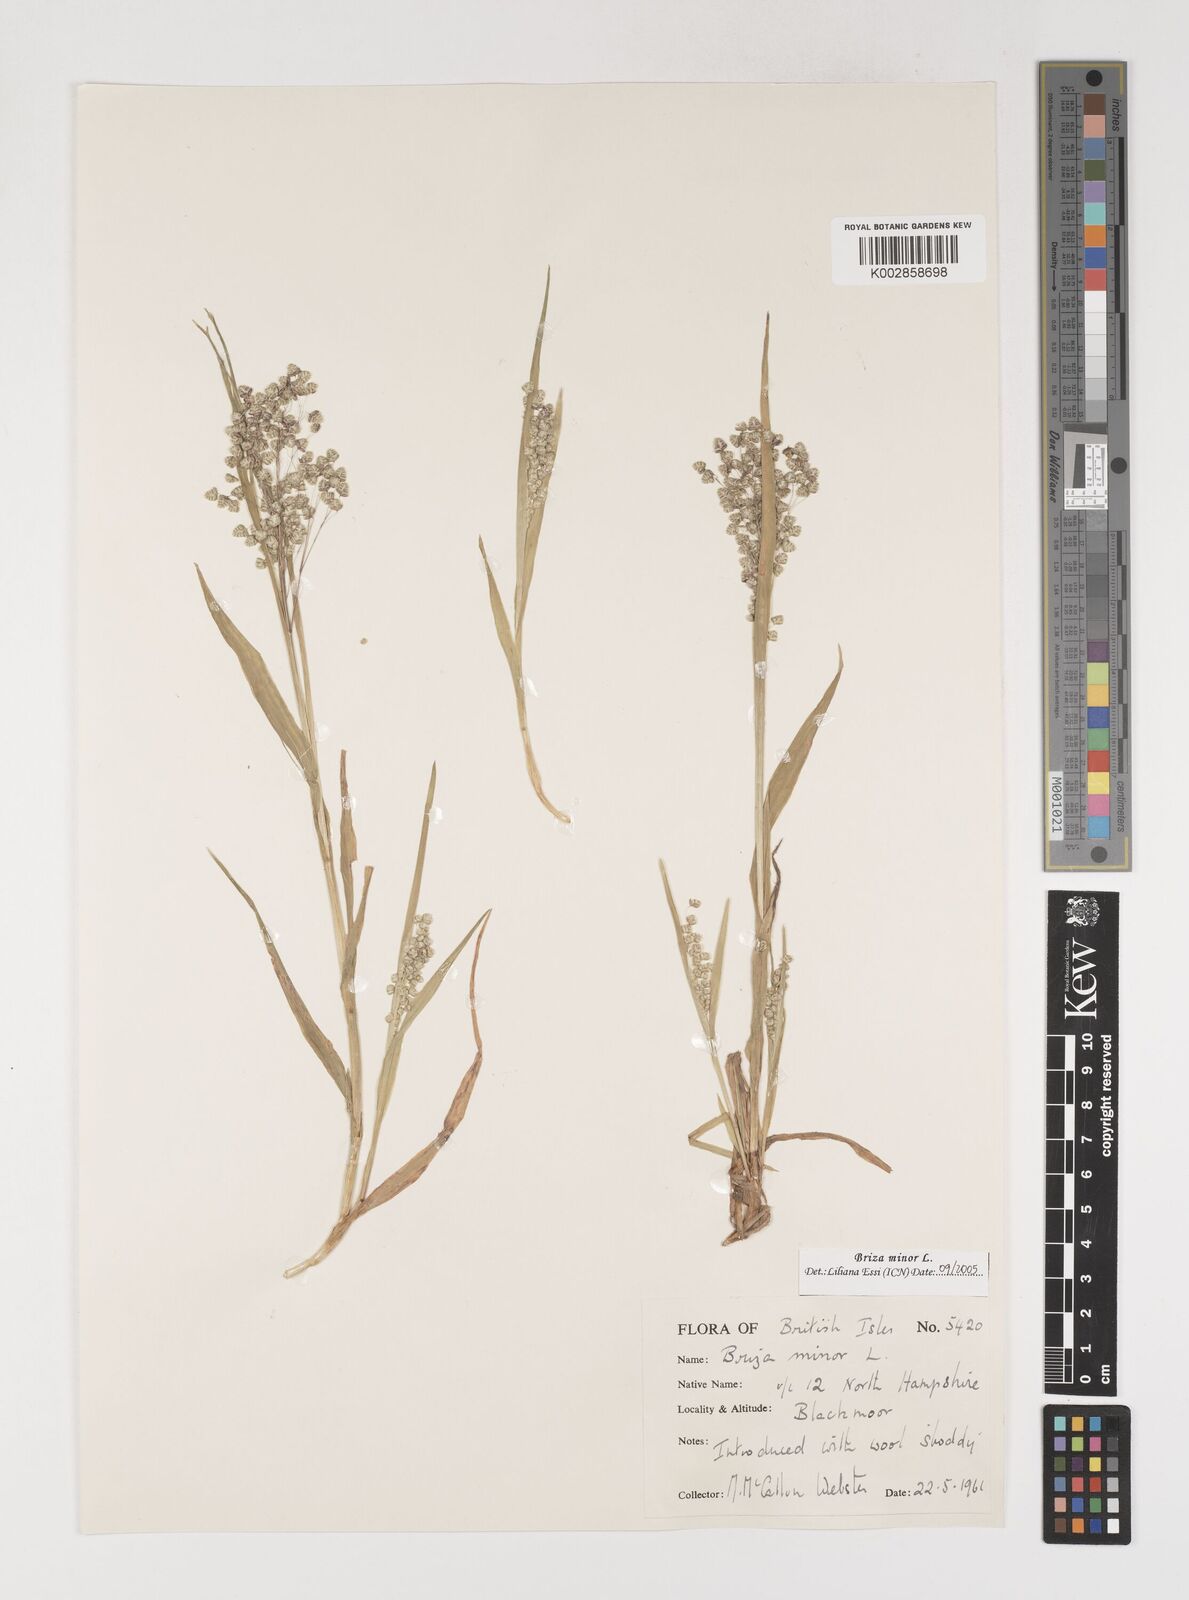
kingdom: Plantae
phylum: Tracheophyta
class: Liliopsida
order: Poales
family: Poaceae
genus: Briza
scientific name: Briza minor
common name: Lesser quaking-grass
